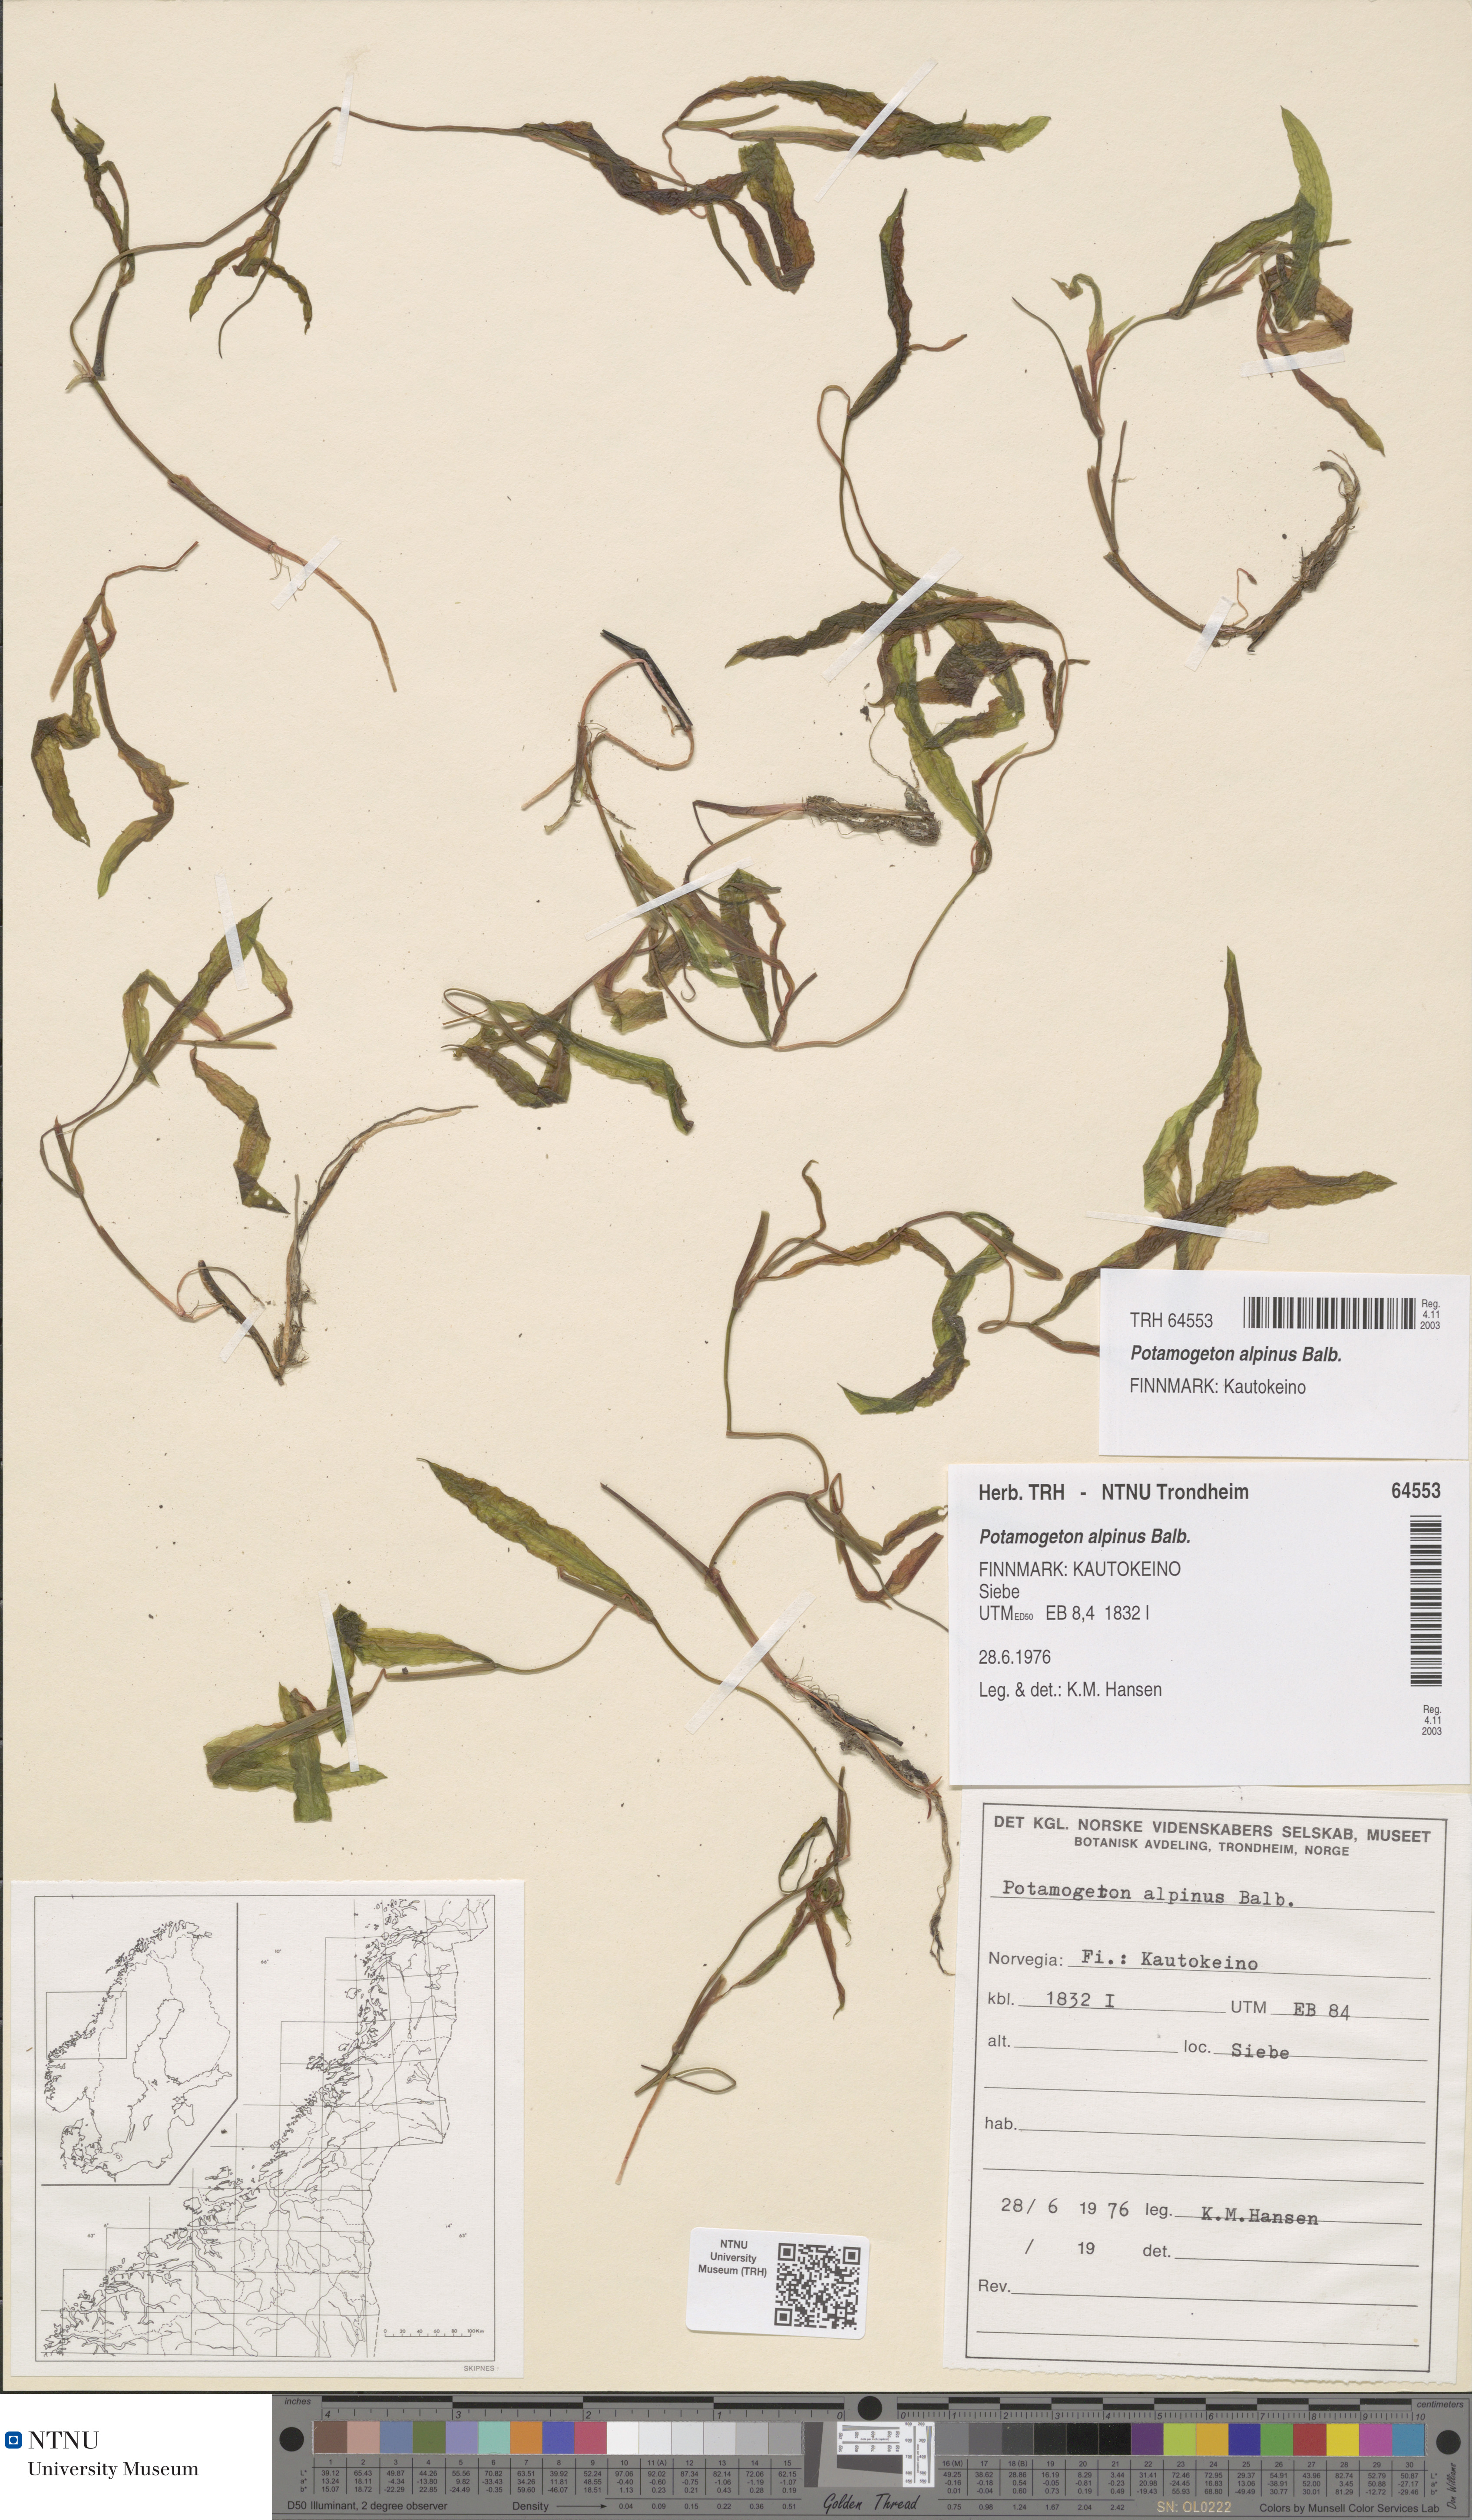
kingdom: Plantae
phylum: Tracheophyta
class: Liliopsida
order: Alismatales
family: Potamogetonaceae
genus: Potamogeton
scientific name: Potamogeton gramineus
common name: Various-leaved pondweed
